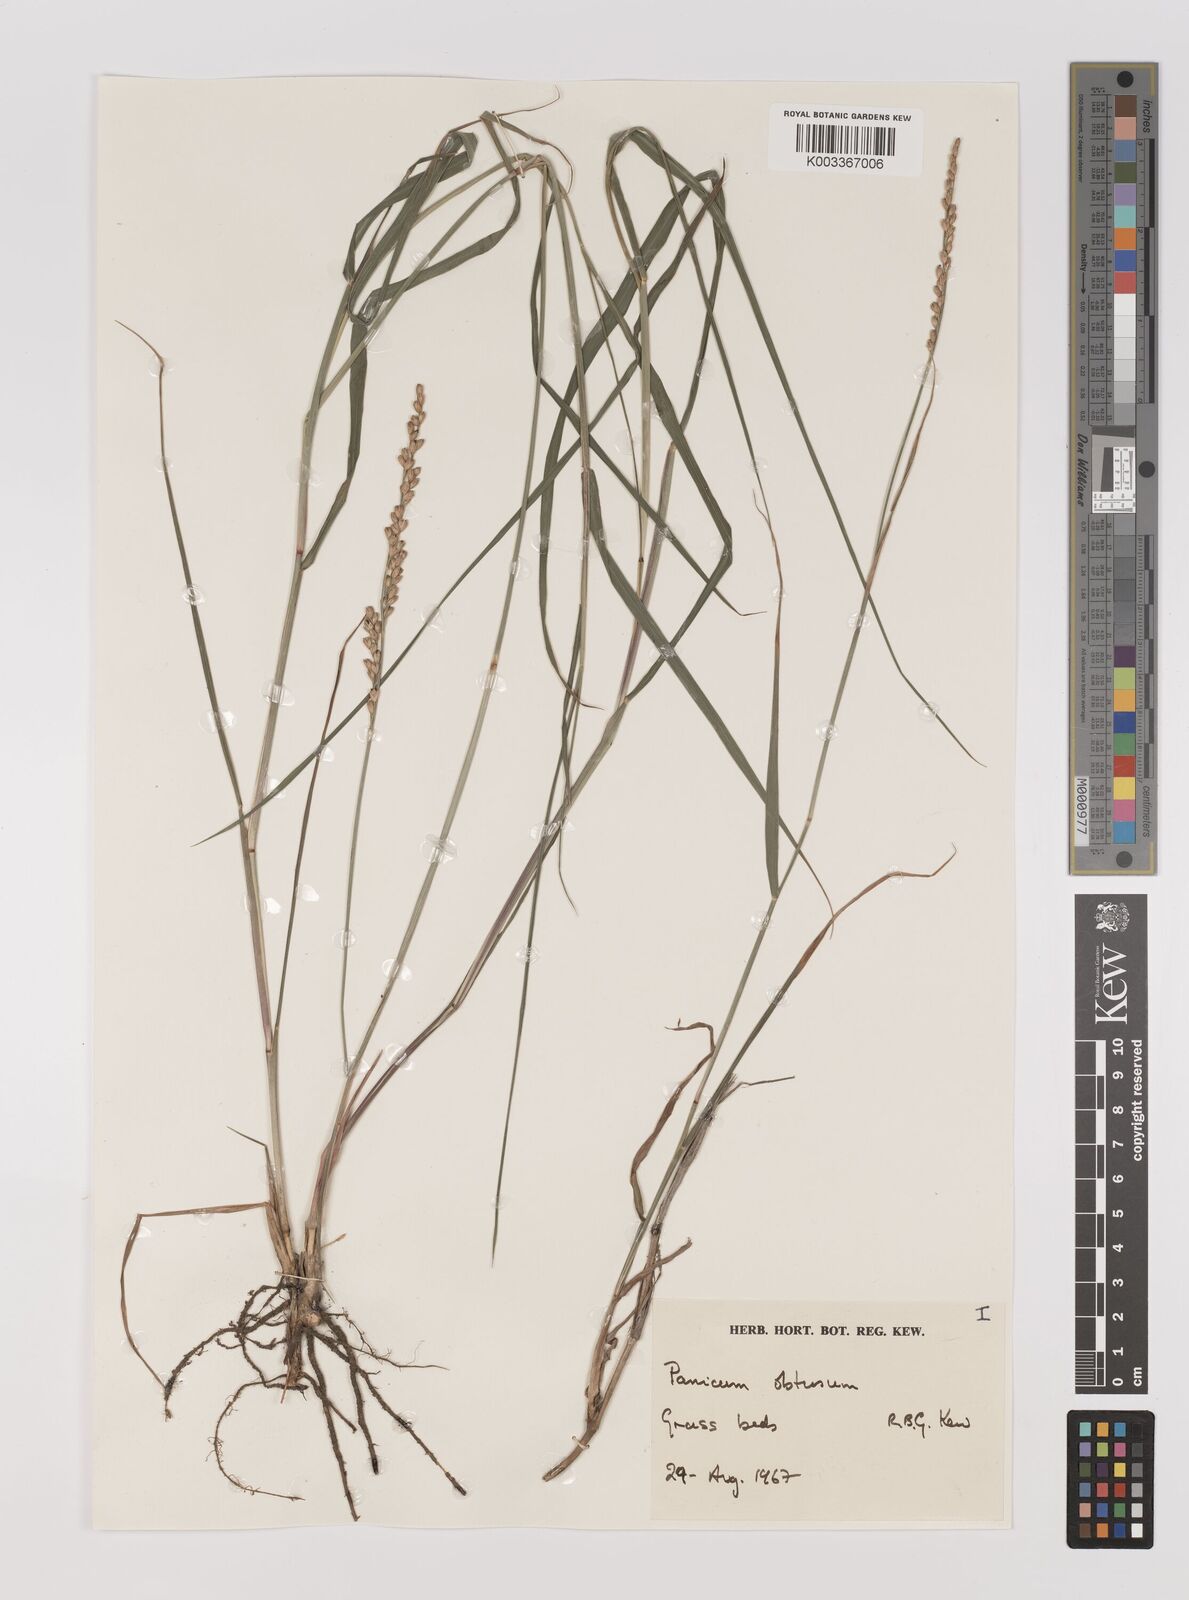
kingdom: Plantae
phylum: Tracheophyta
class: Liliopsida
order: Poales
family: Poaceae
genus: Hopia
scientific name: Hopia obtusa
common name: Vine-mesquite
